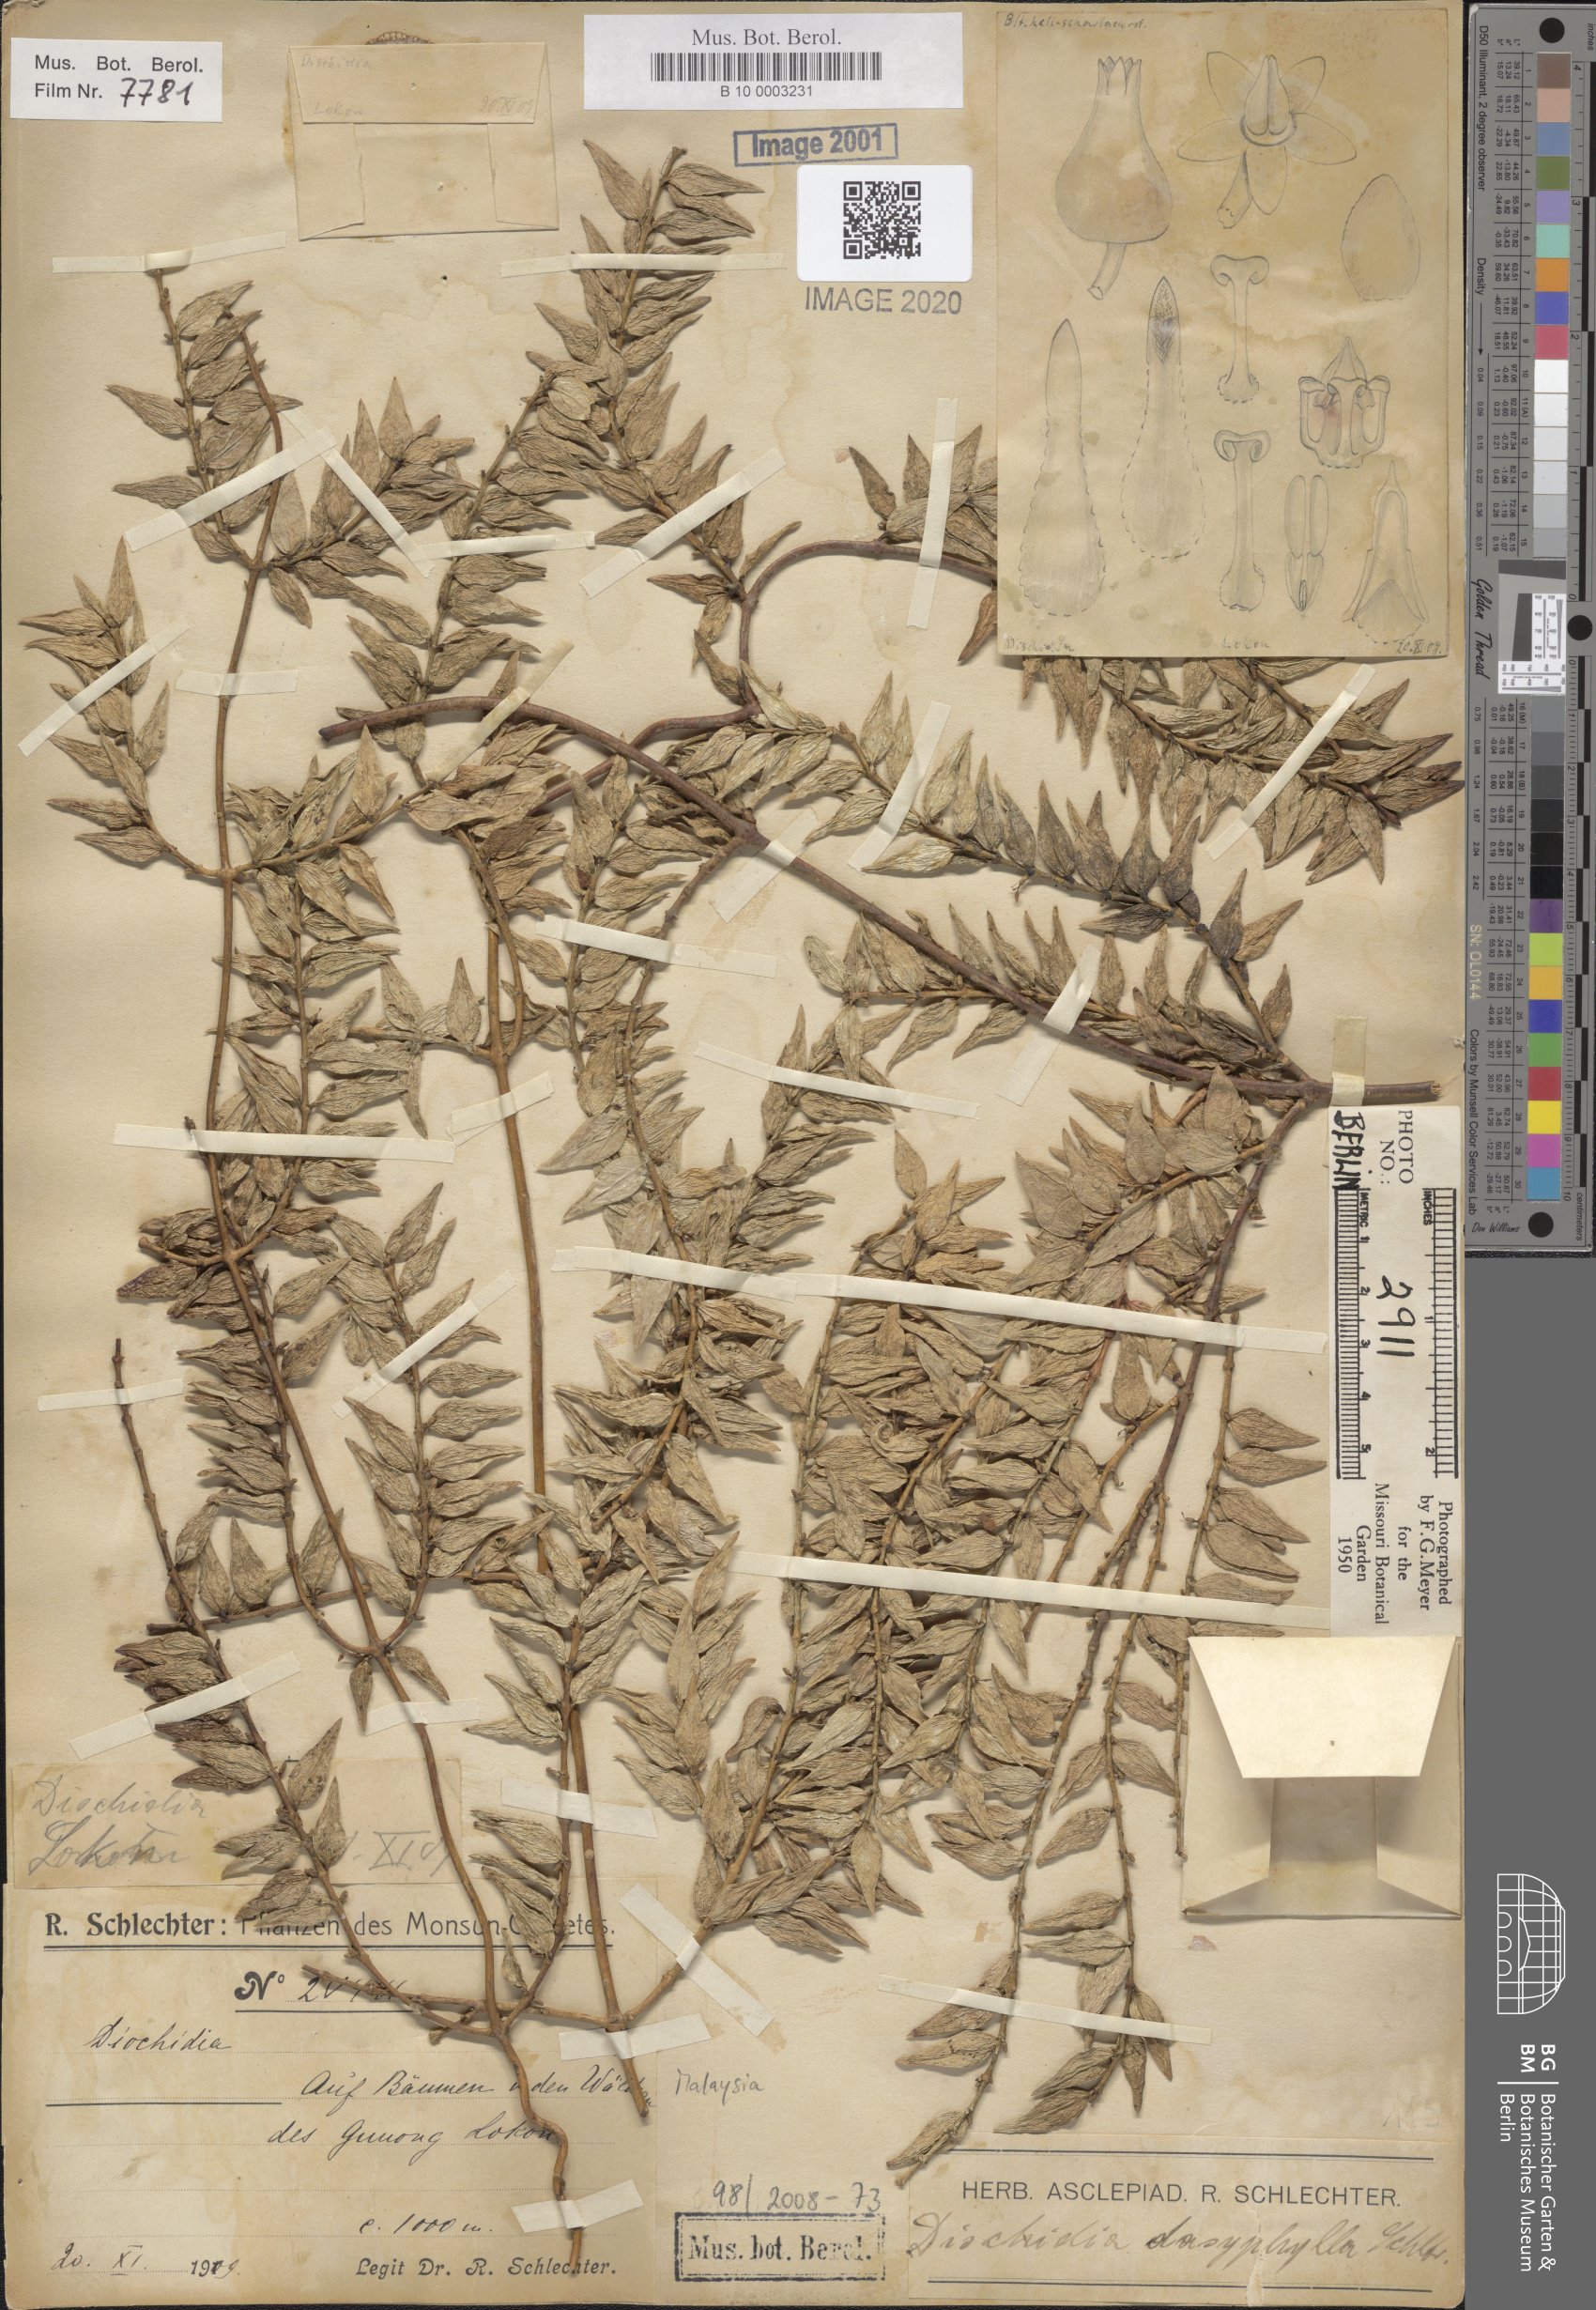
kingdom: Plantae
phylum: Tracheophyta
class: Magnoliopsida
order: Gentianales
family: Apocynaceae
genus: Dischidia
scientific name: Dischidia dasyphylla
